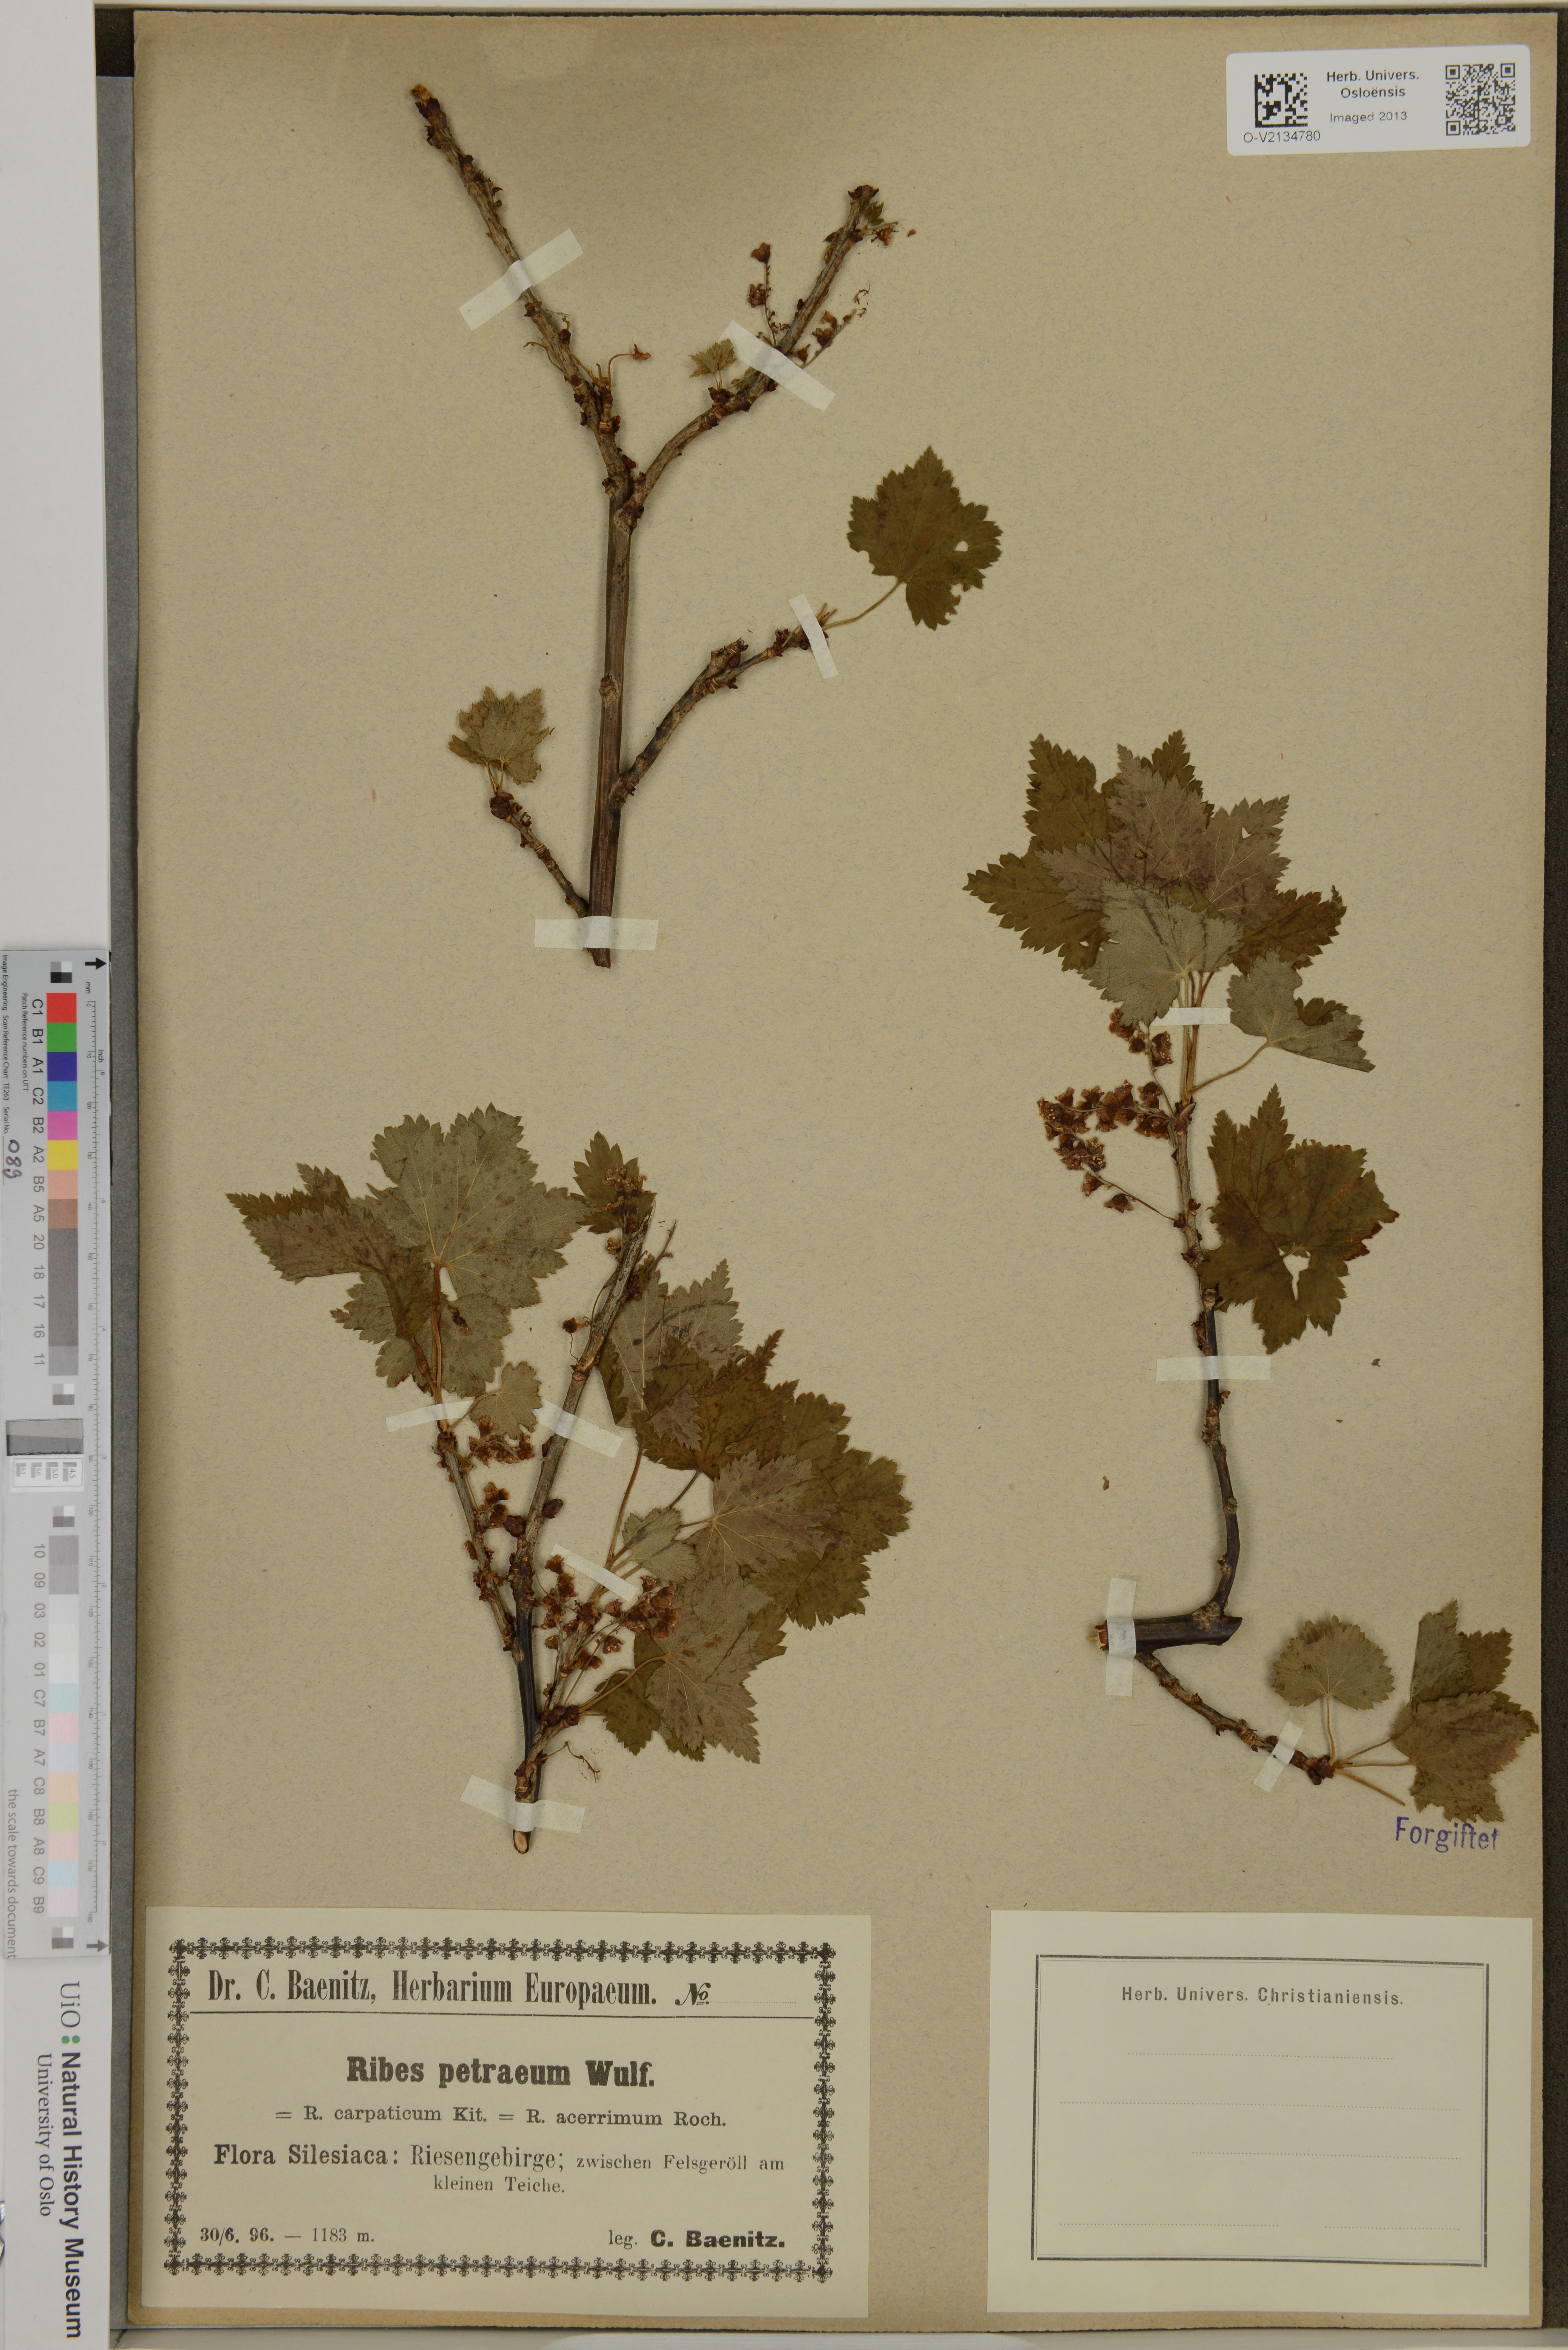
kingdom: Plantae
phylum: Tracheophyta
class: Magnoliopsida
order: Saxifragales
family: Grossulariaceae
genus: Ribes
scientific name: Ribes petraeum
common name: Rock currant
